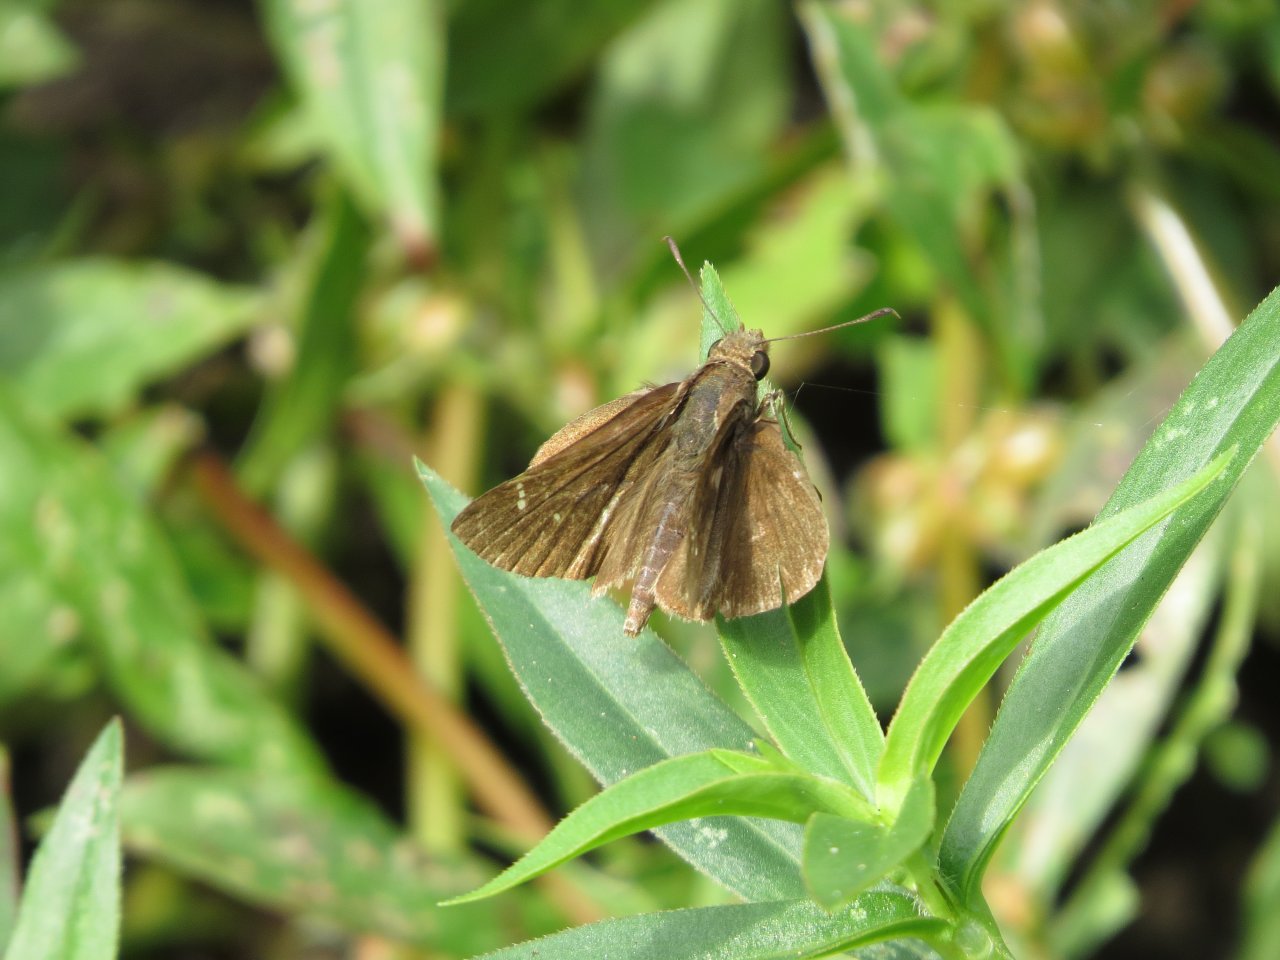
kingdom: Animalia
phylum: Arthropoda
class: Insecta
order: Lepidoptera
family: Hesperiidae
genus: Lerema
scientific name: Lerema accius
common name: Clouded Skipper
